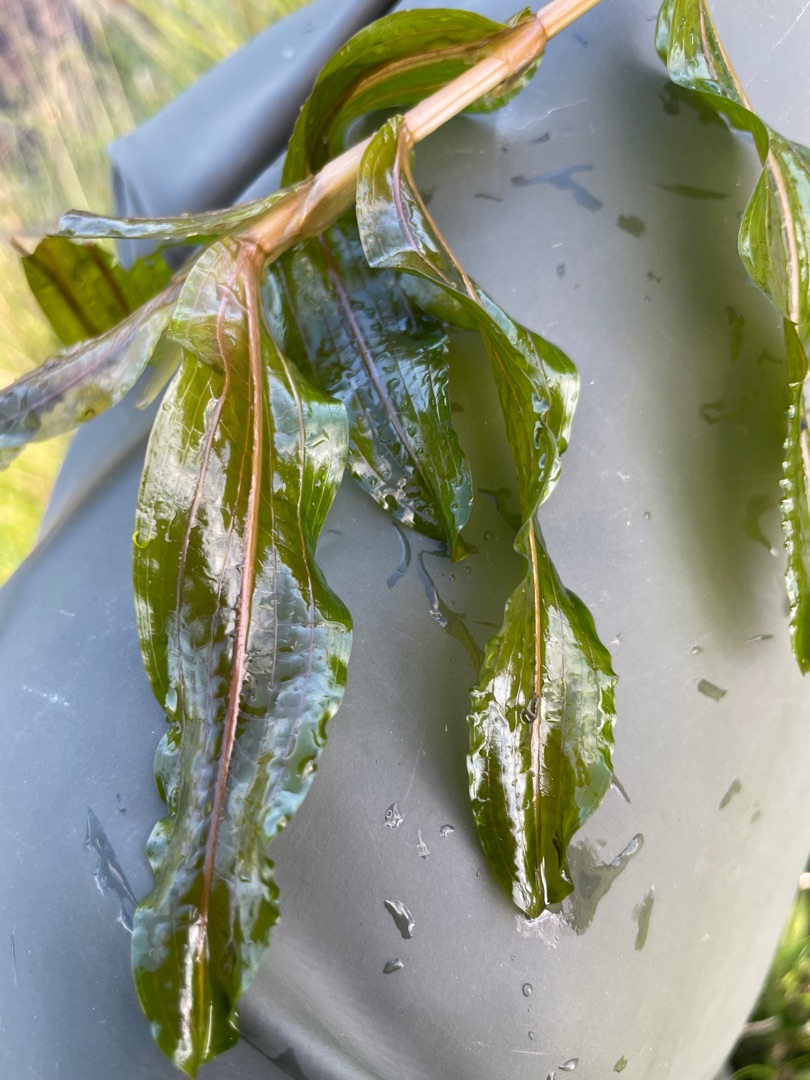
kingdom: Plantae
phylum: Tracheophyta
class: Liliopsida
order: Alismatales
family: Potamogetonaceae
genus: Potamogeton
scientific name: Potamogeton
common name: Kruset vandaks × langbladet vandaks
